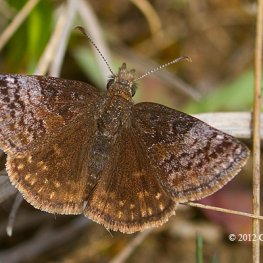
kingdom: Animalia
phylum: Arthropoda
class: Insecta
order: Lepidoptera
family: Hesperiidae
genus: Erynnis
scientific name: Erynnis icelus
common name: Dreamy Duskywing
